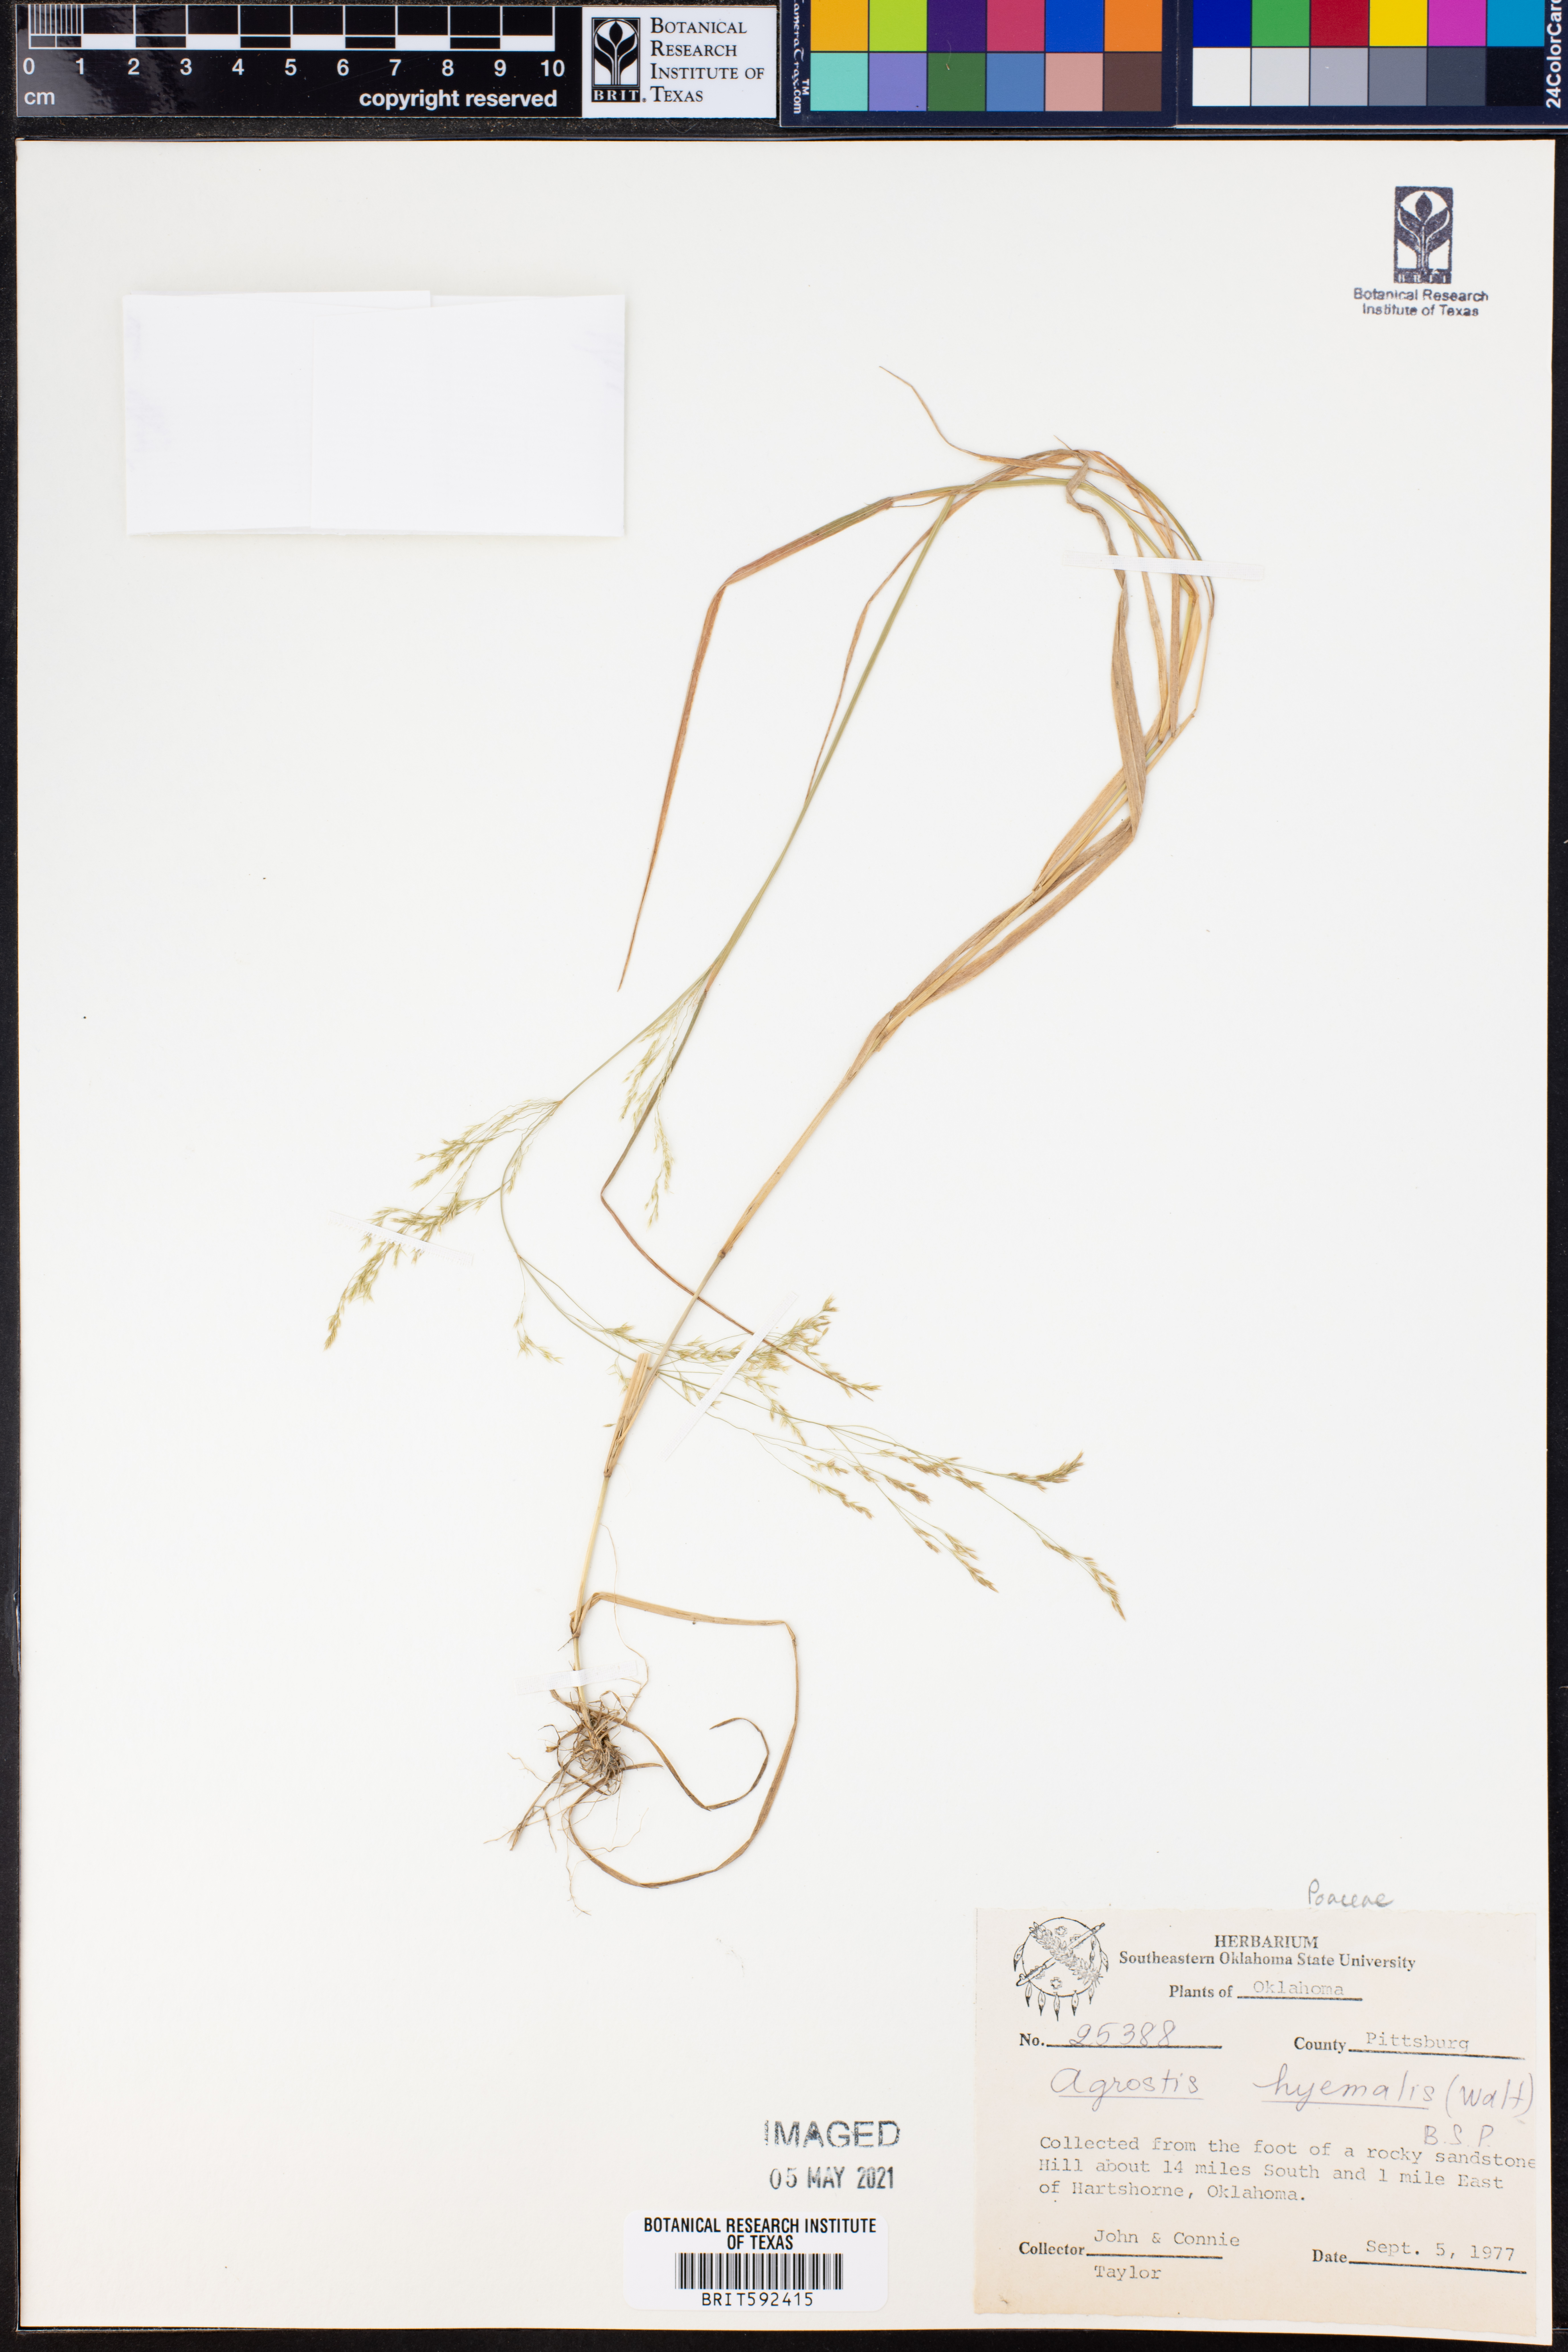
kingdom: Plantae
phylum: Tracheophyta
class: Liliopsida
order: Poales
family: Poaceae
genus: Agrostis
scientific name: Agrostis hyemalis
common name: Small bent
